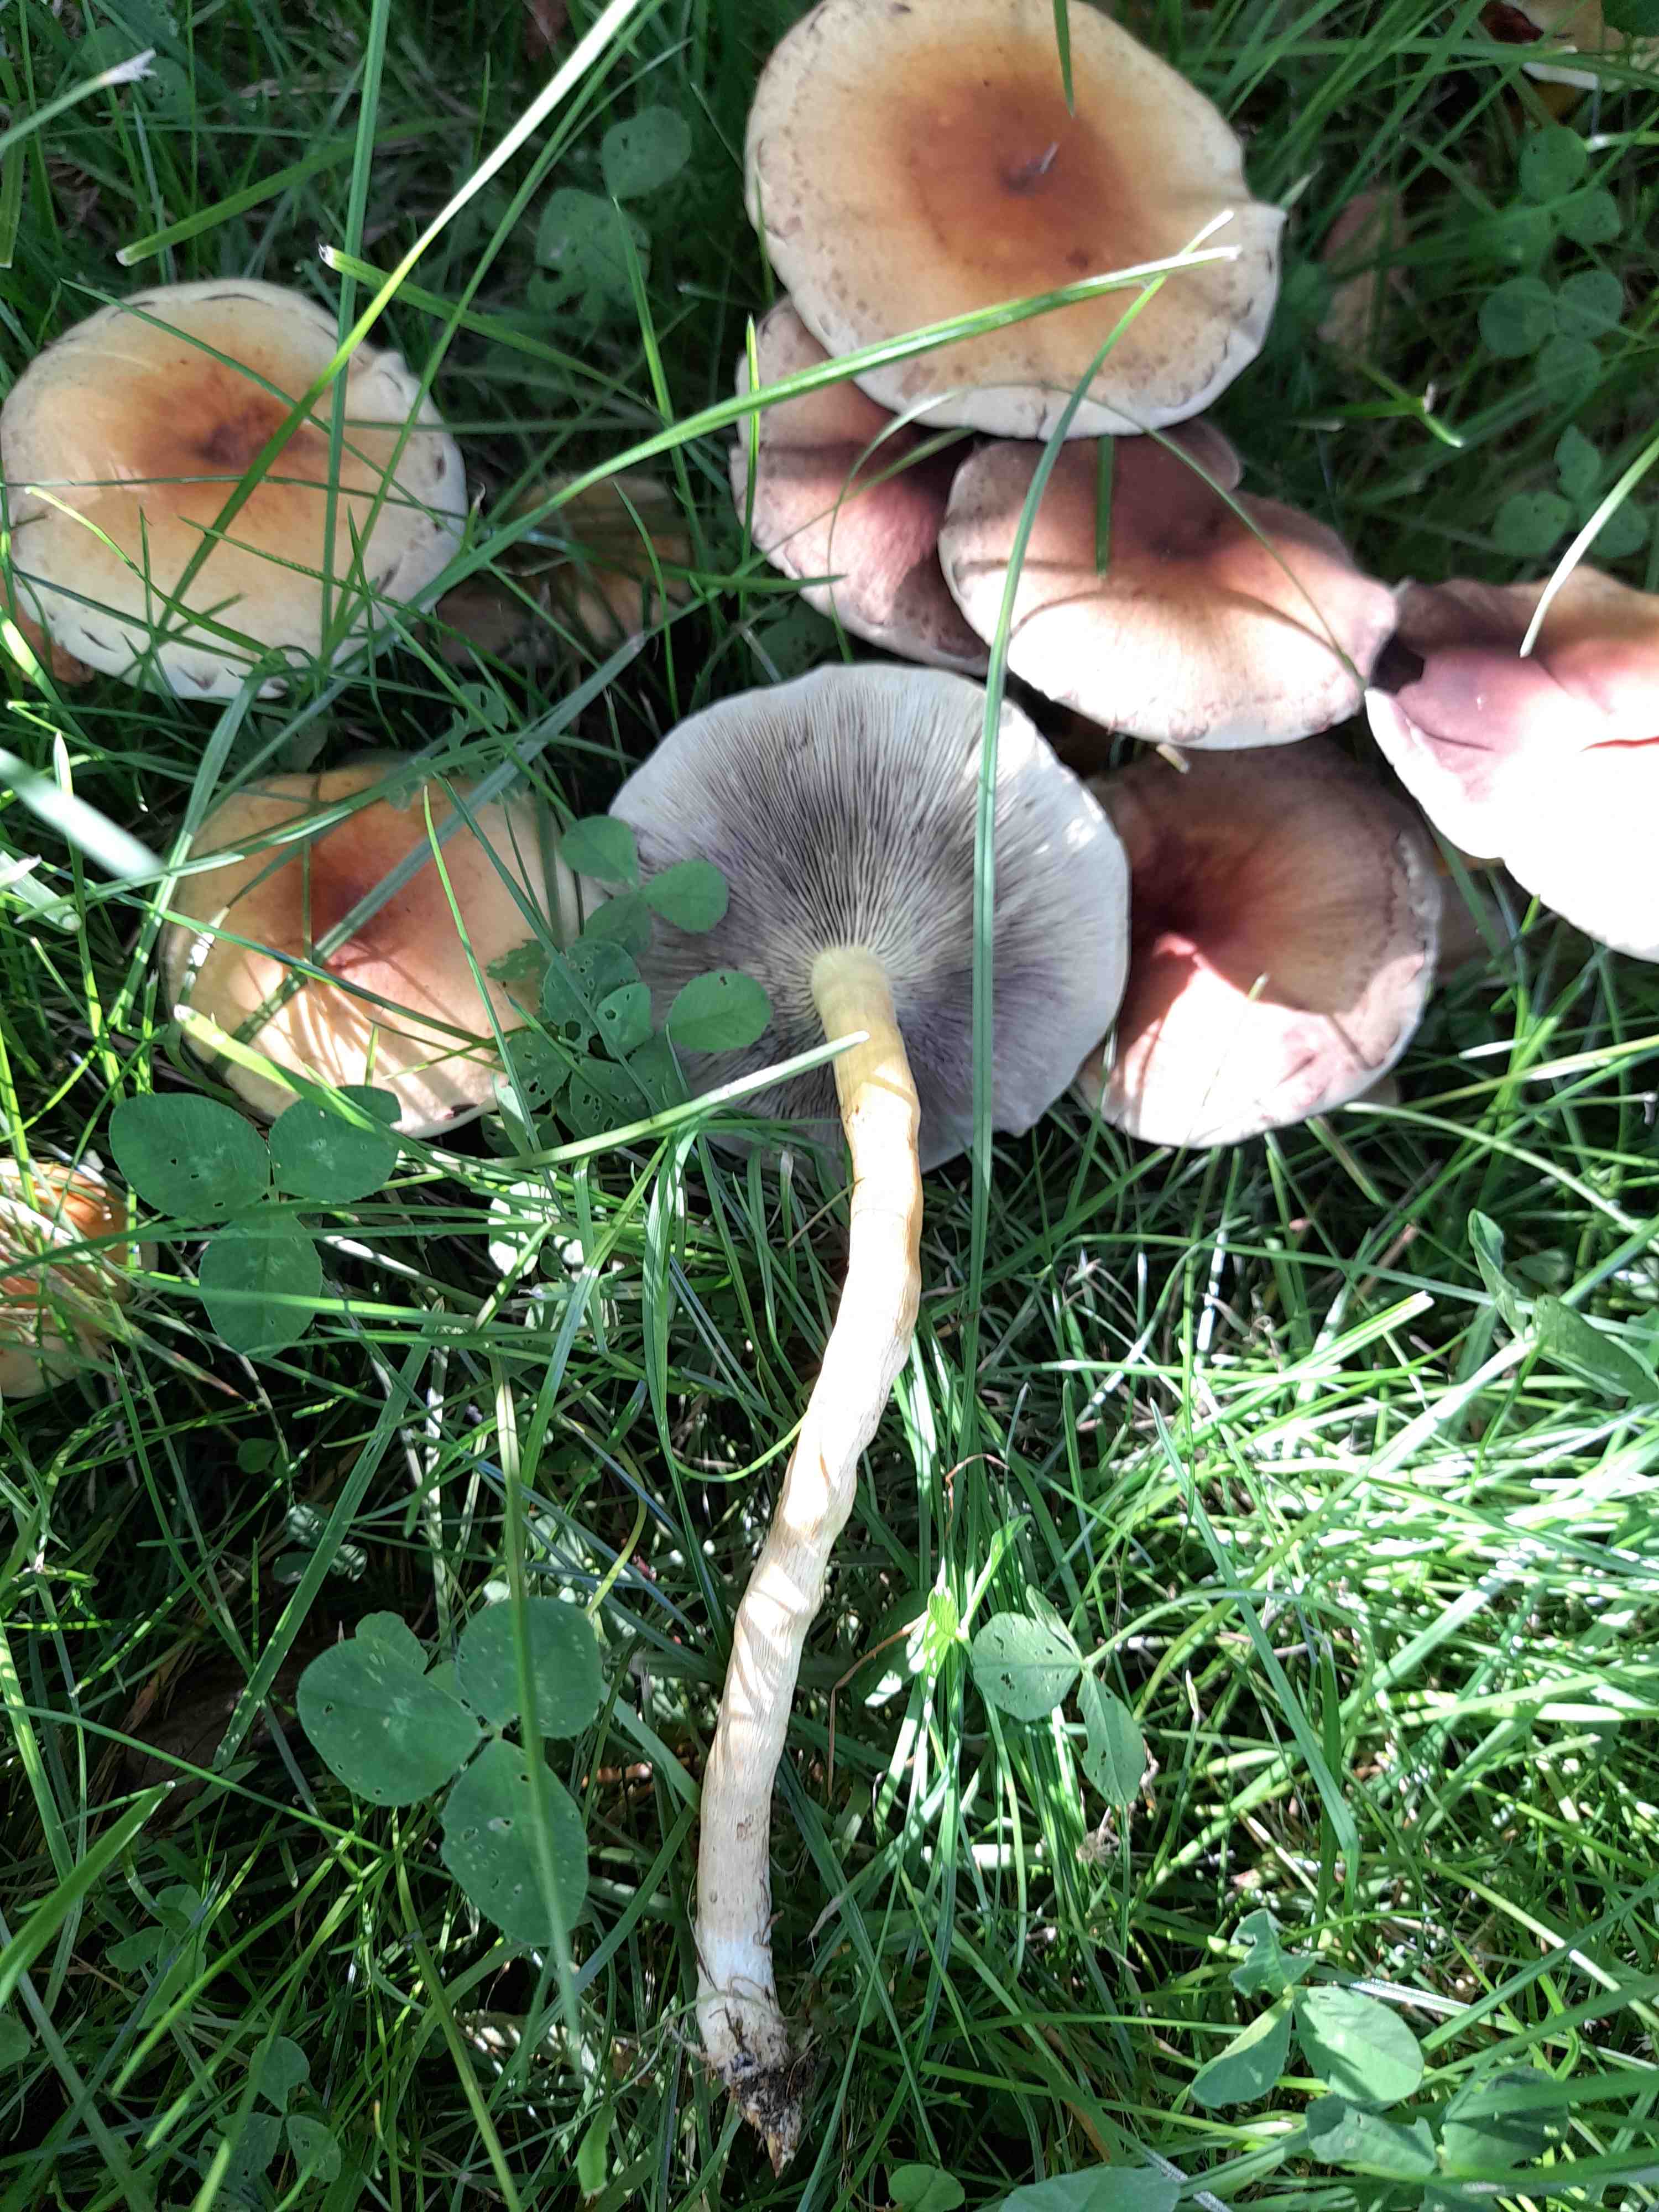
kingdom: Fungi
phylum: Basidiomycota
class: Agaricomycetes
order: Agaricales
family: Strophariaceae
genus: Hypholoma
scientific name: Hypholoma fasciculare
